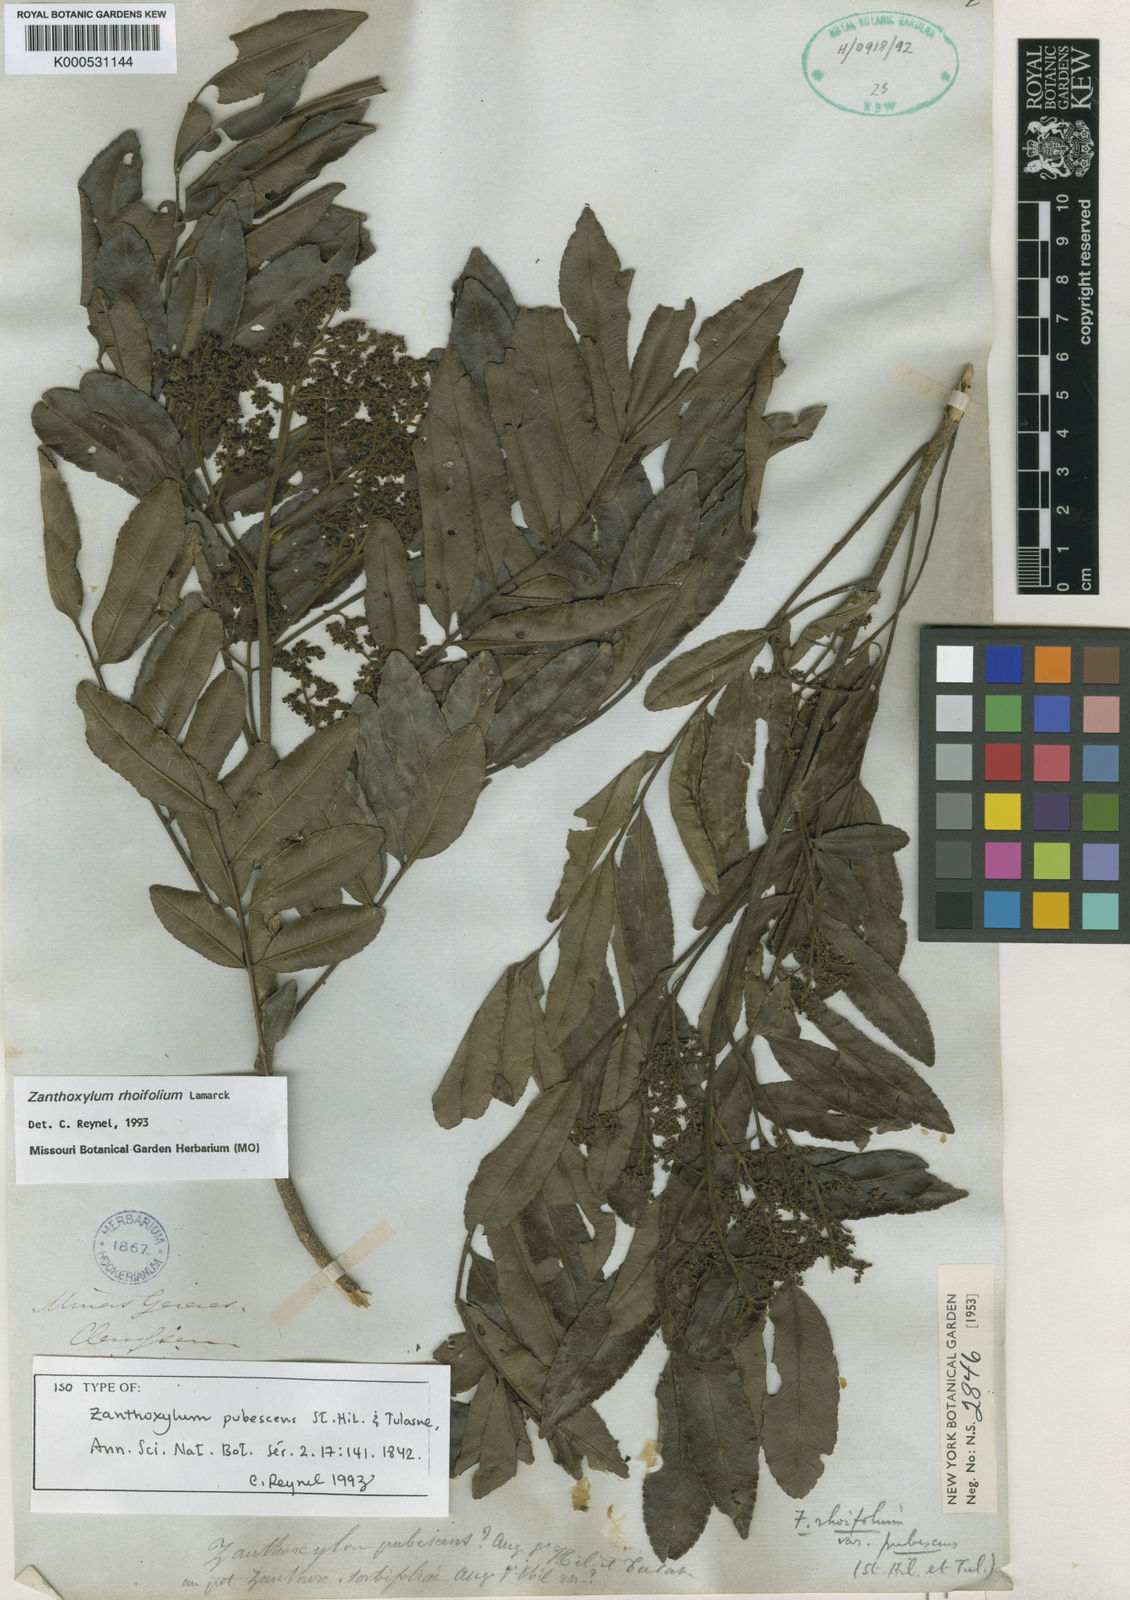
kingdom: Plantae
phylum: Tracheophyta
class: Magnoliopsida
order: Sapindales
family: Rutaceae
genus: Zanthoxylum
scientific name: Zanthoxylum rhoifolium
